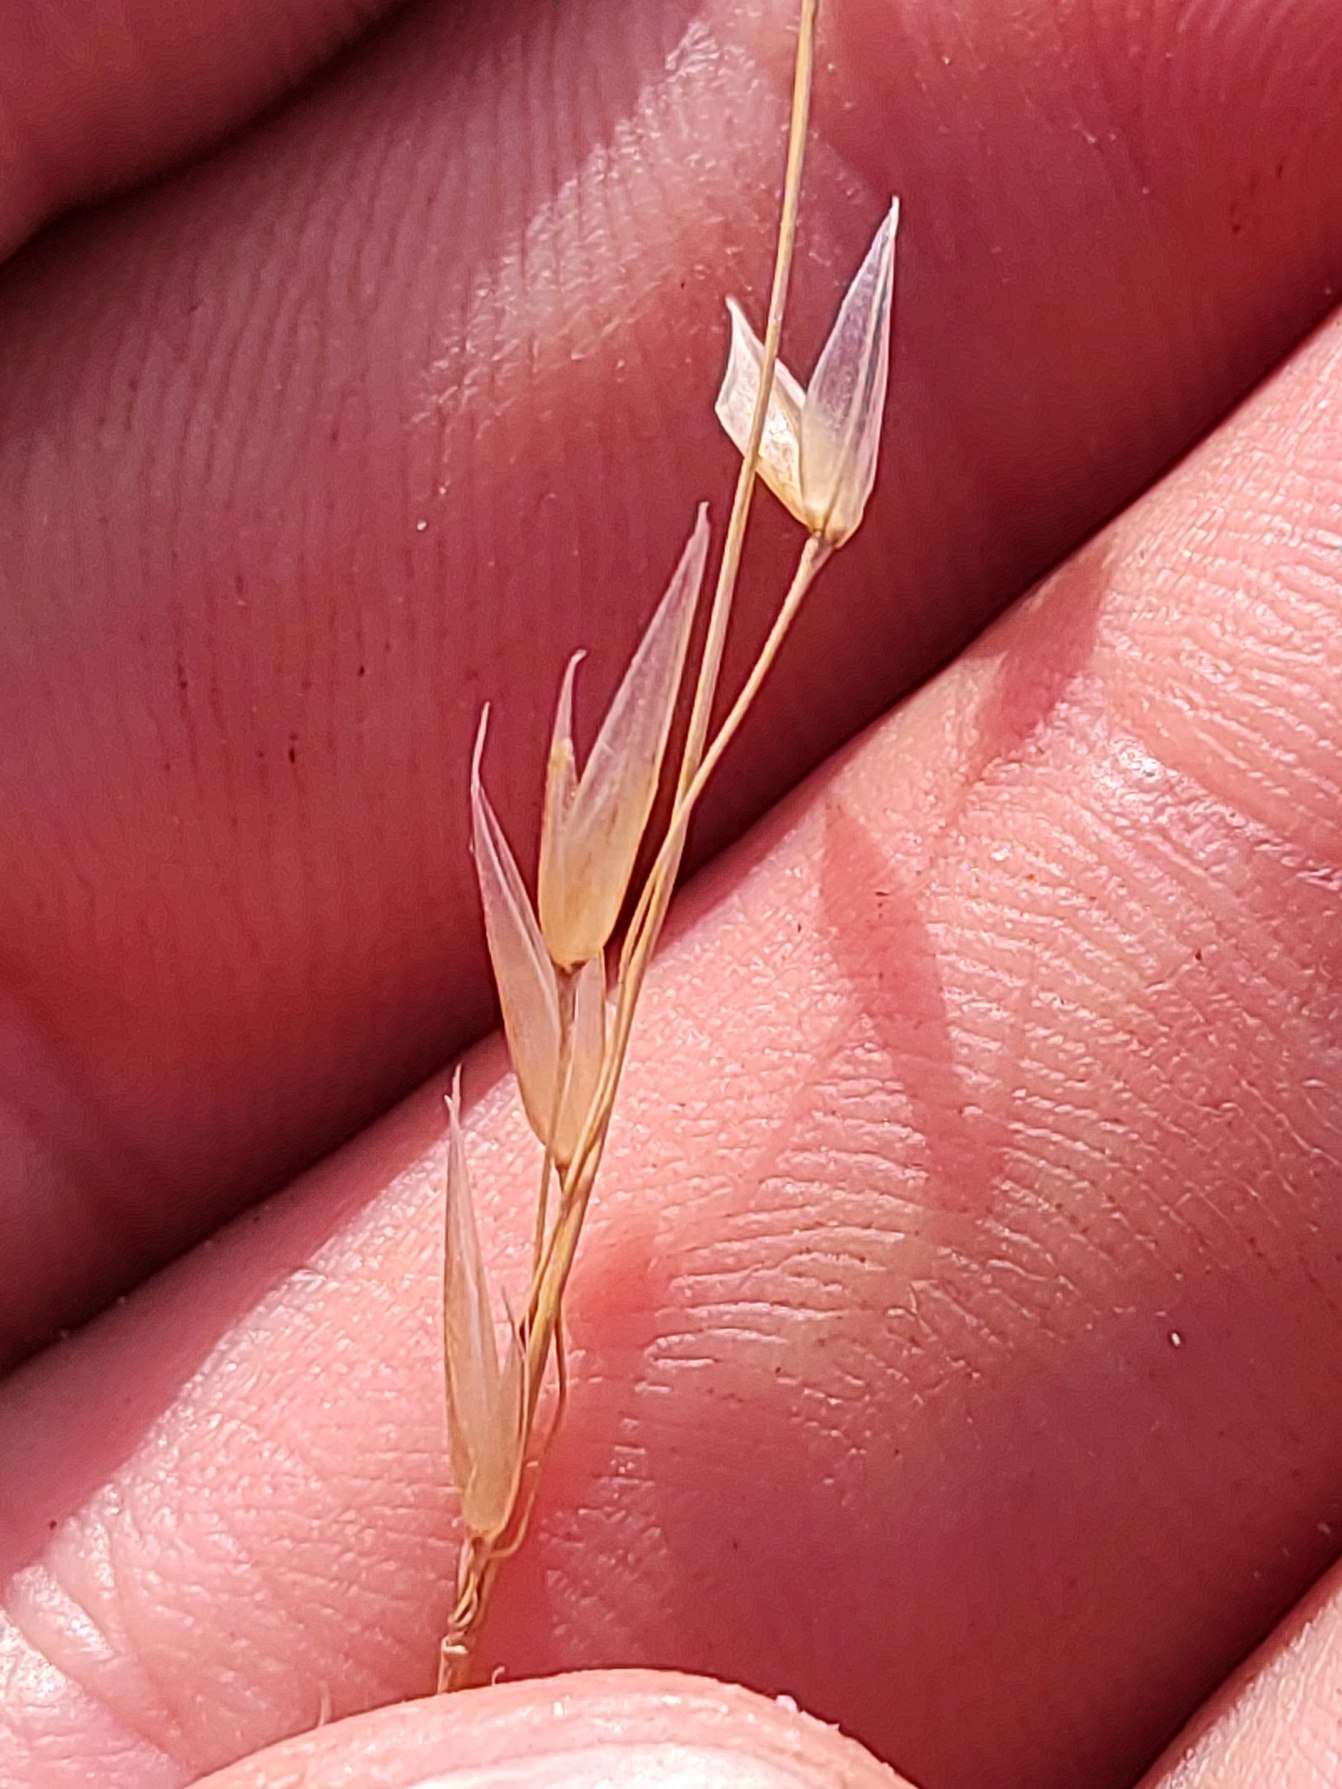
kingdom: Plantae
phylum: Tracheophyta
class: Liliopsida
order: Poales
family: Poaceae
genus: Arrhenatherum
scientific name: Arrhenatherum elatius
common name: Draphavre
